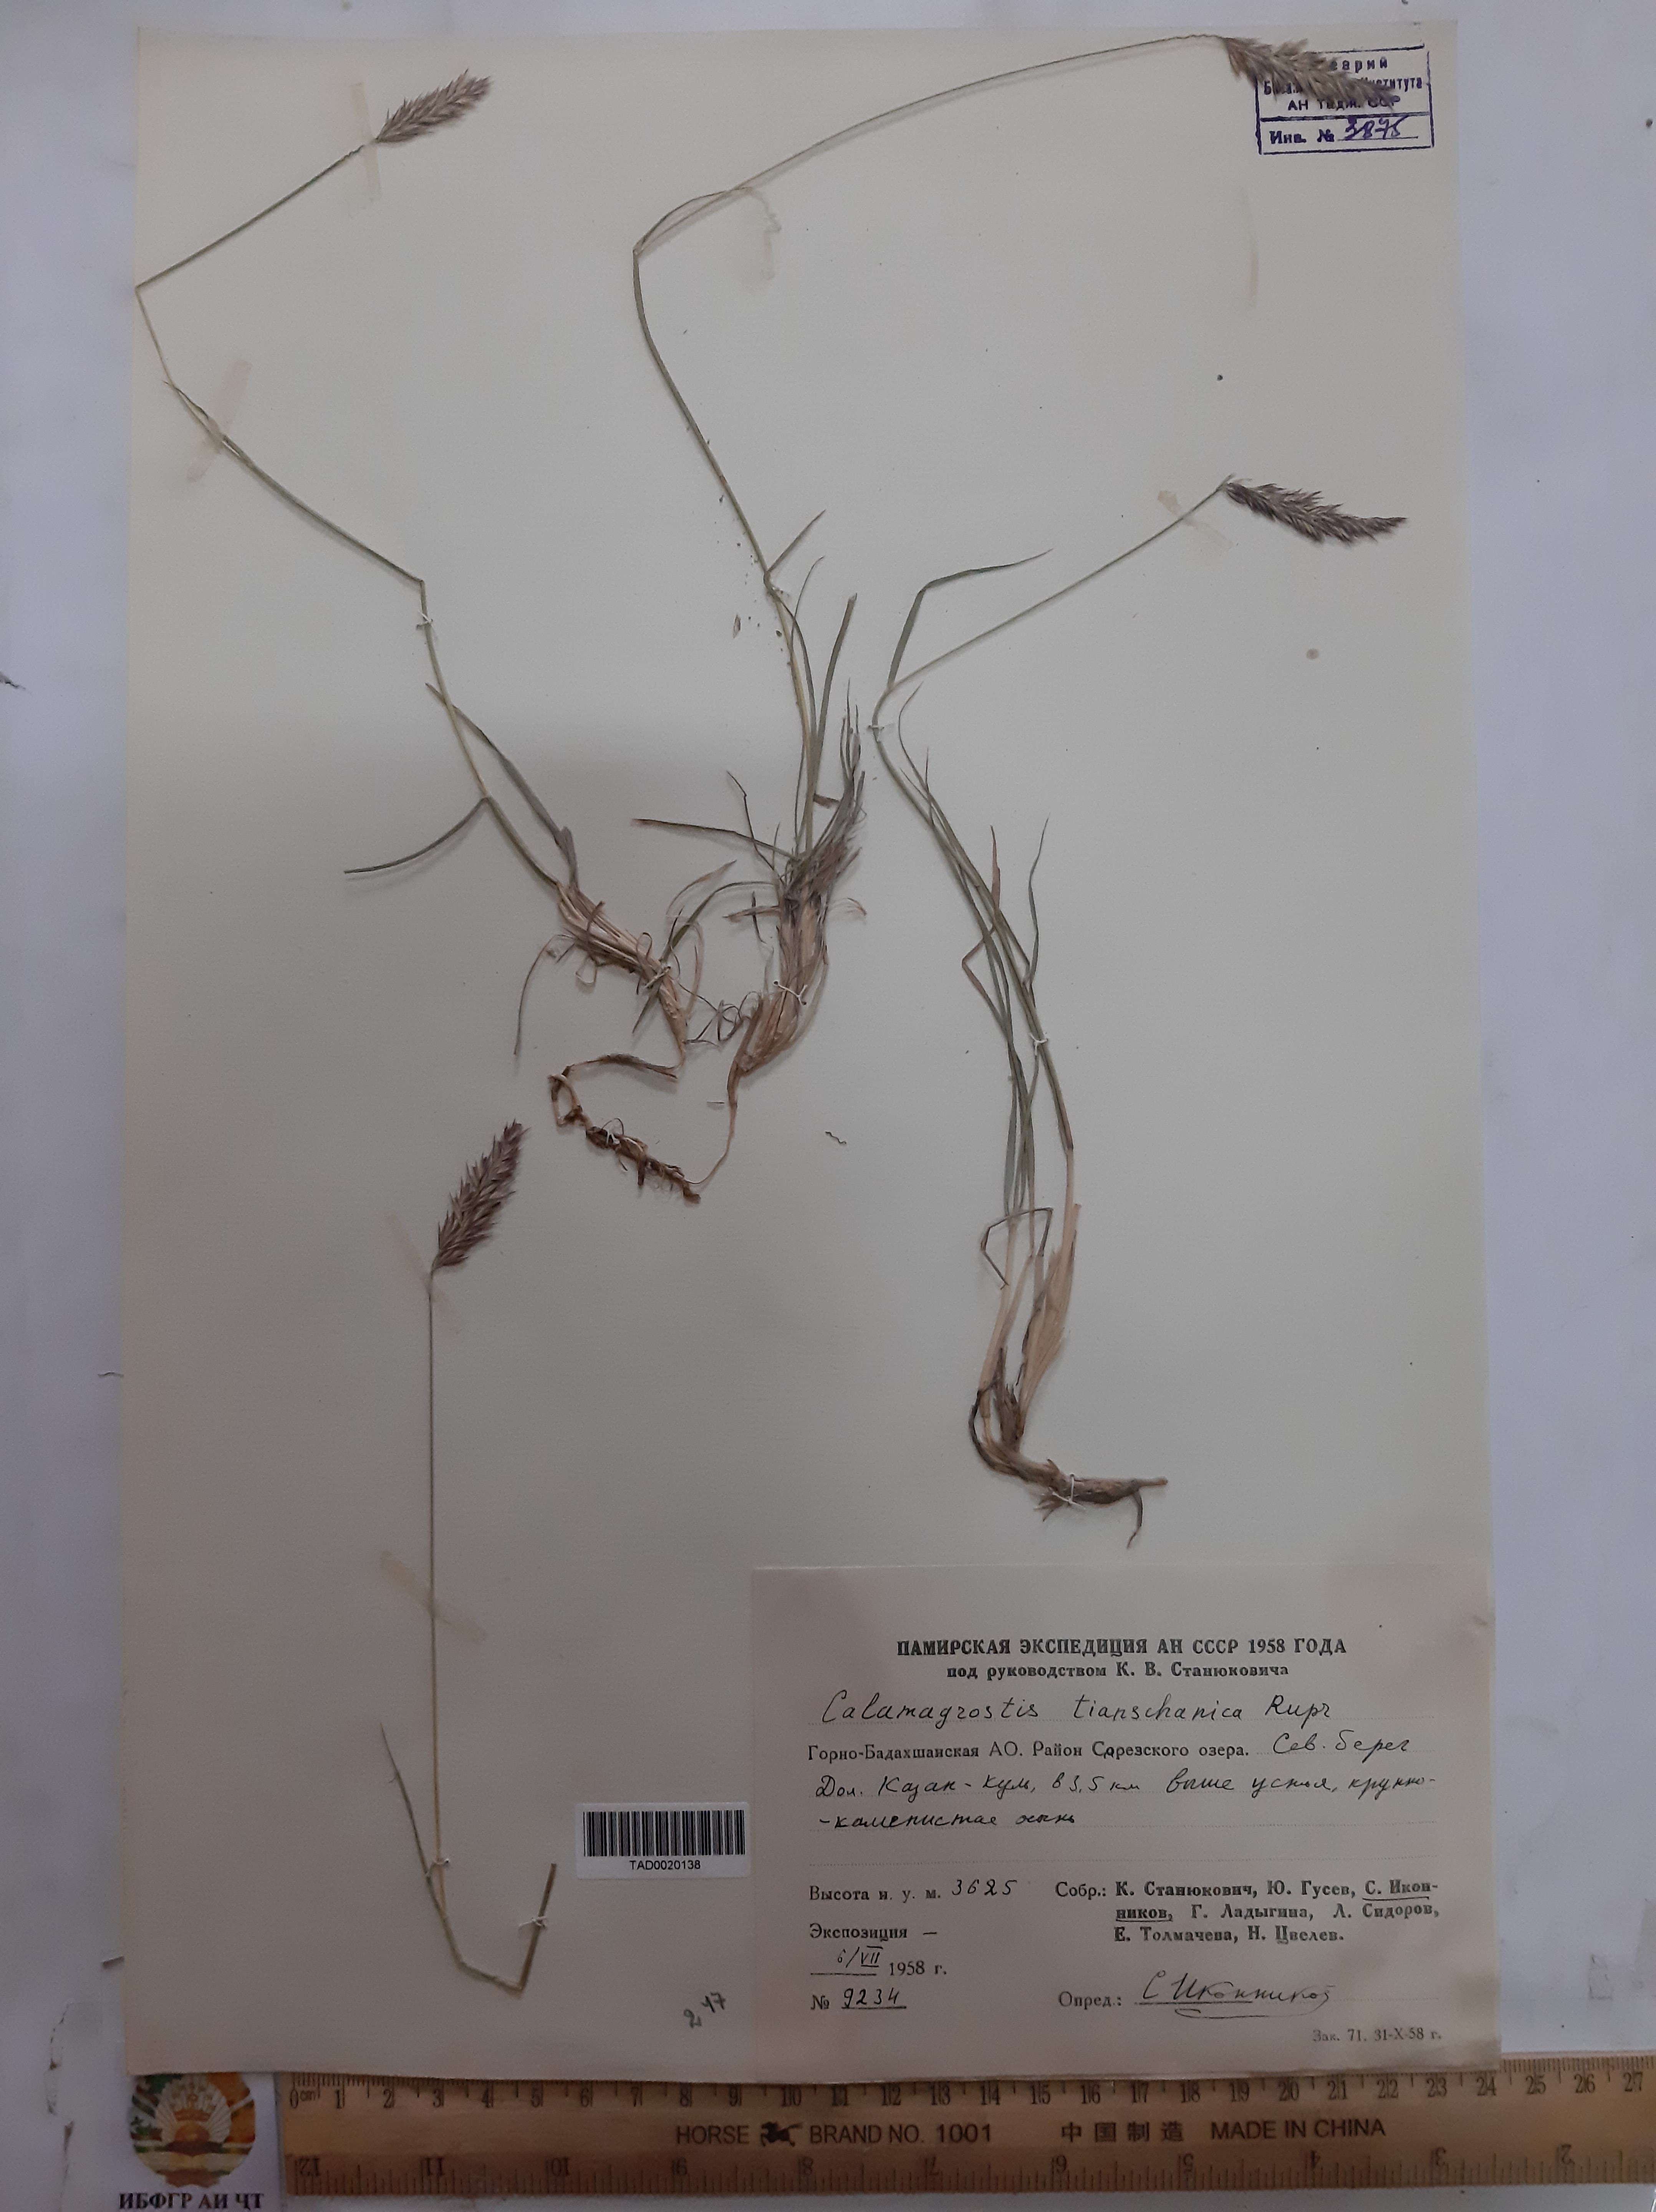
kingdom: Plantae
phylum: Tracheophyta
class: Liliopsida
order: Poales
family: Poaceae
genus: Calamagrostis
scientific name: Calamagrostis tianschanica
